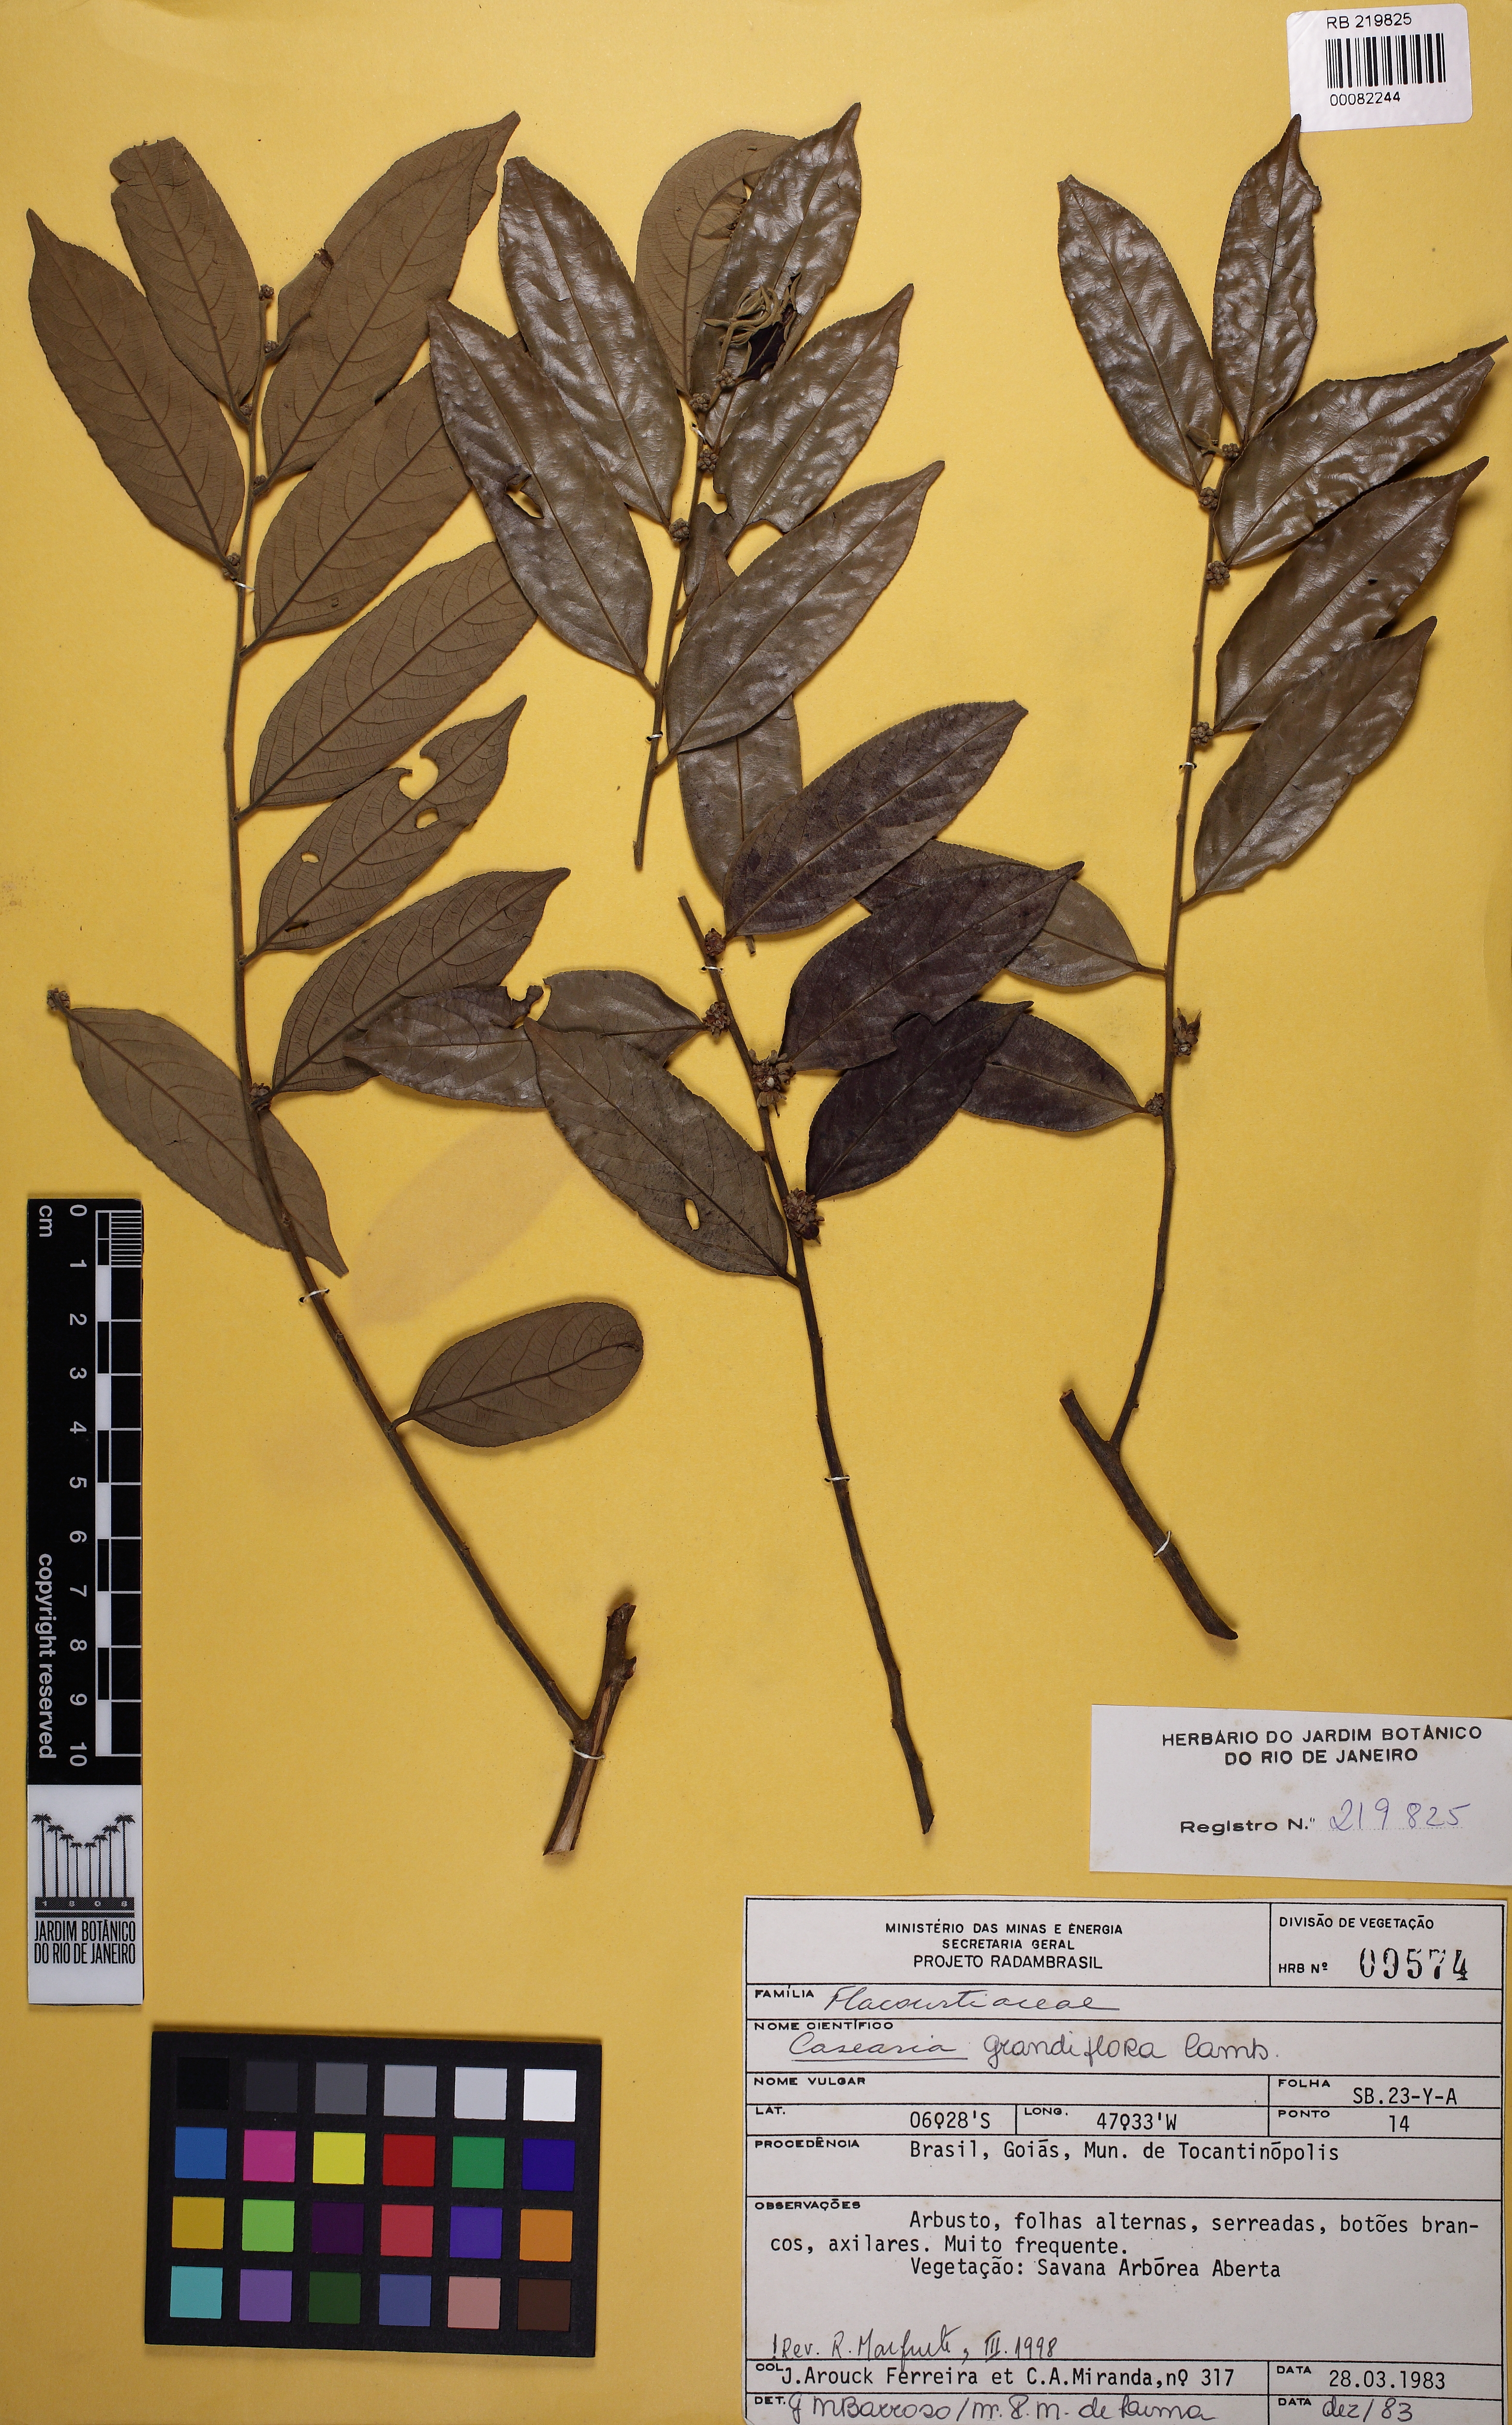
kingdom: Plantae
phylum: Tracheophyta
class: Magnoliopsida
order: Malpighiales
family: Salicaceae
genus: Casearia
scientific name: Casearia grandiflora
